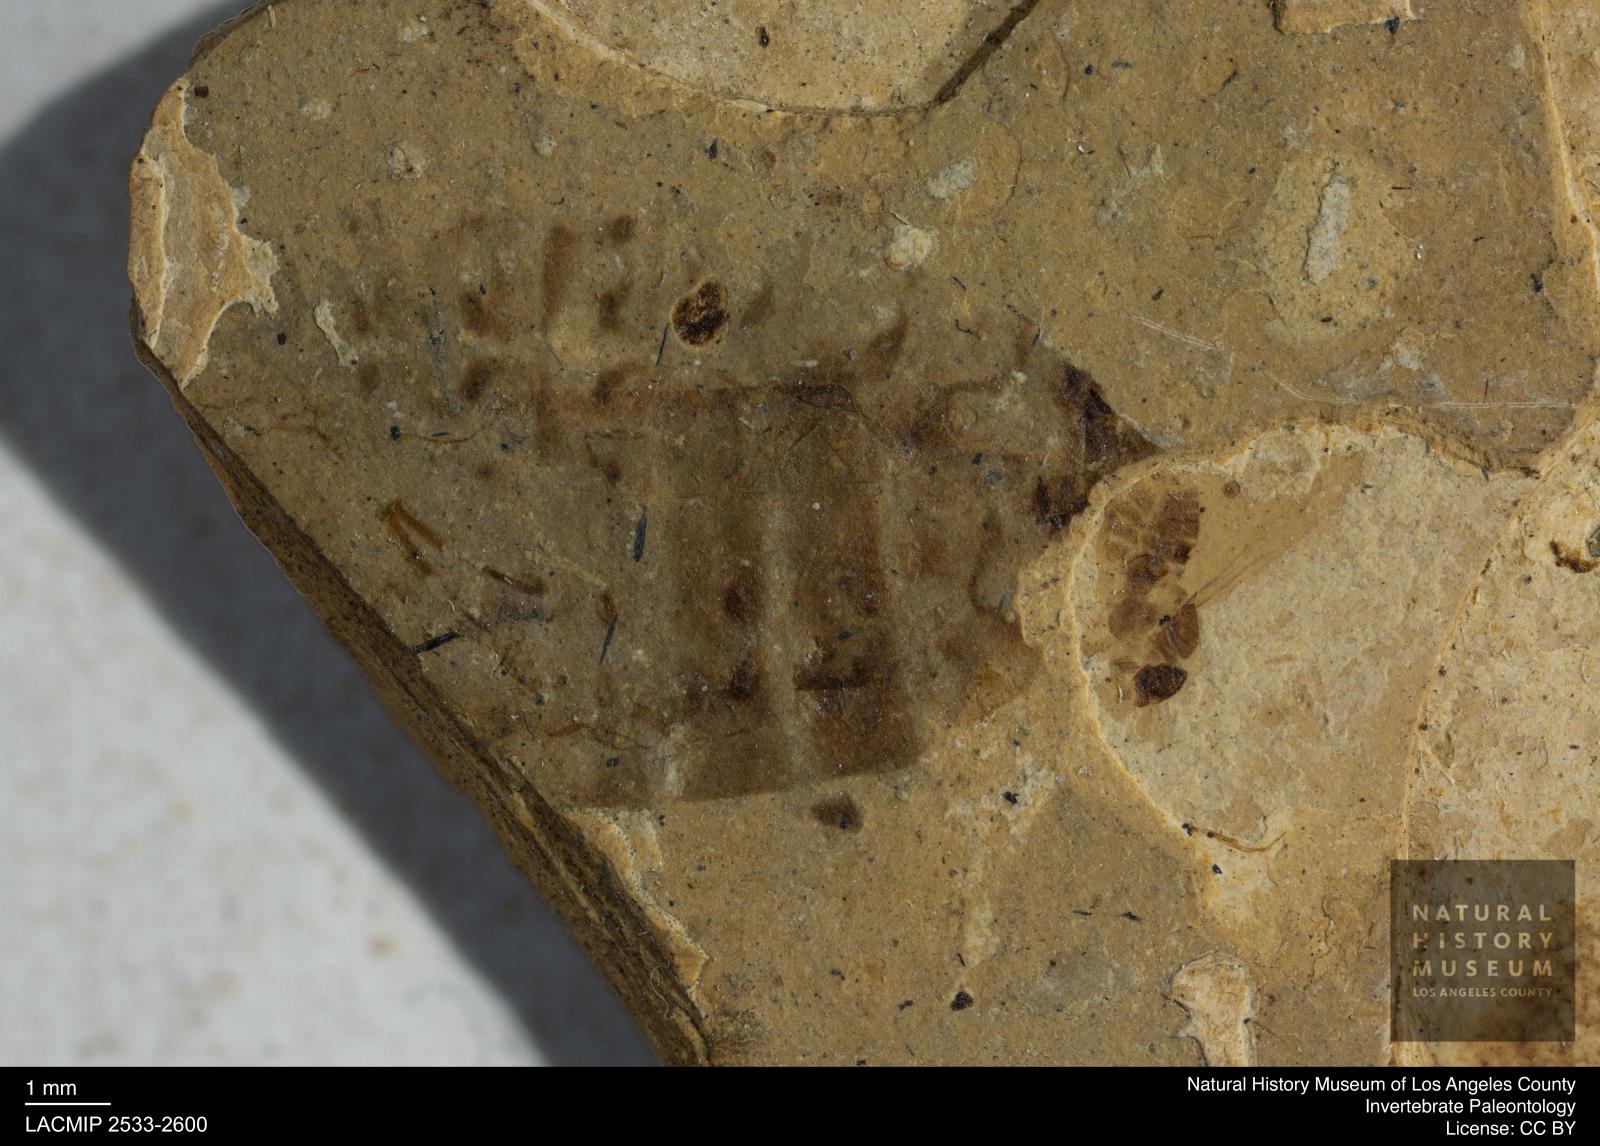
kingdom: Animalia
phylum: Arthropoda
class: Insecta
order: Hymenoptera
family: Formicidae
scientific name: Formicidae
